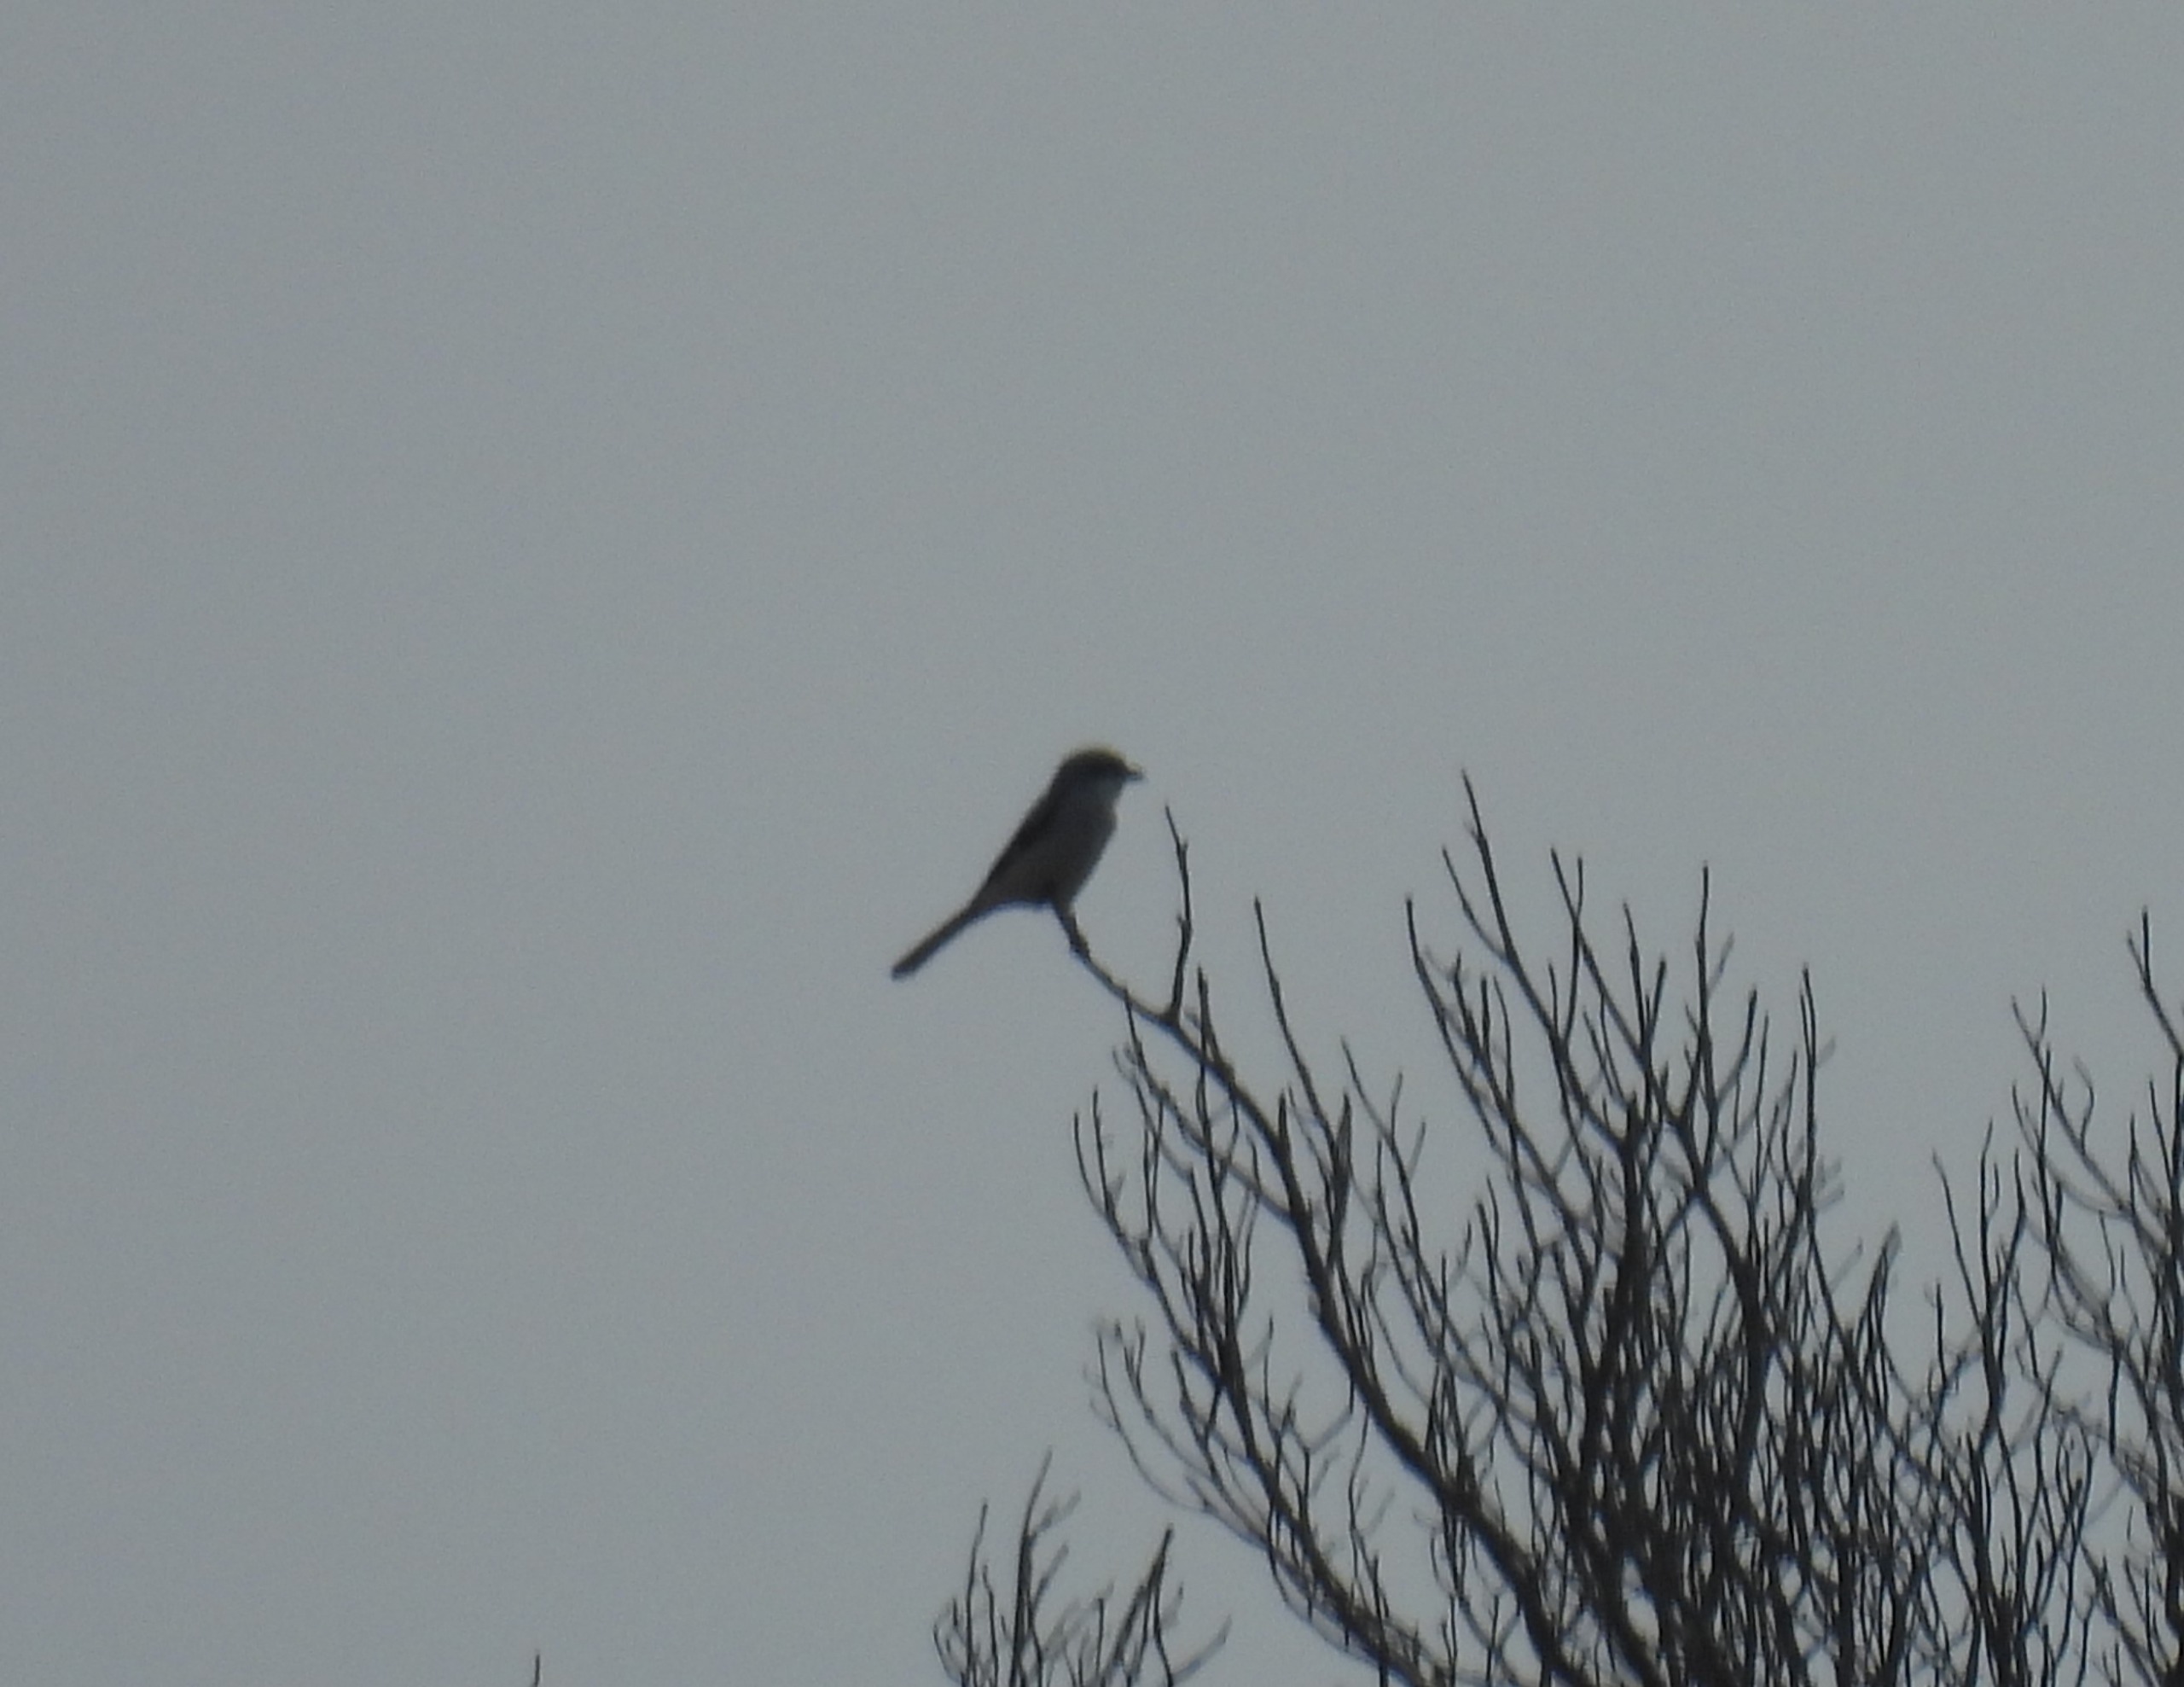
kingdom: Animalia
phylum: Chordata
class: Aves
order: Passeriformes
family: Laniidae
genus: Lanius
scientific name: Lanius excubitor
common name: Stor tornskade
